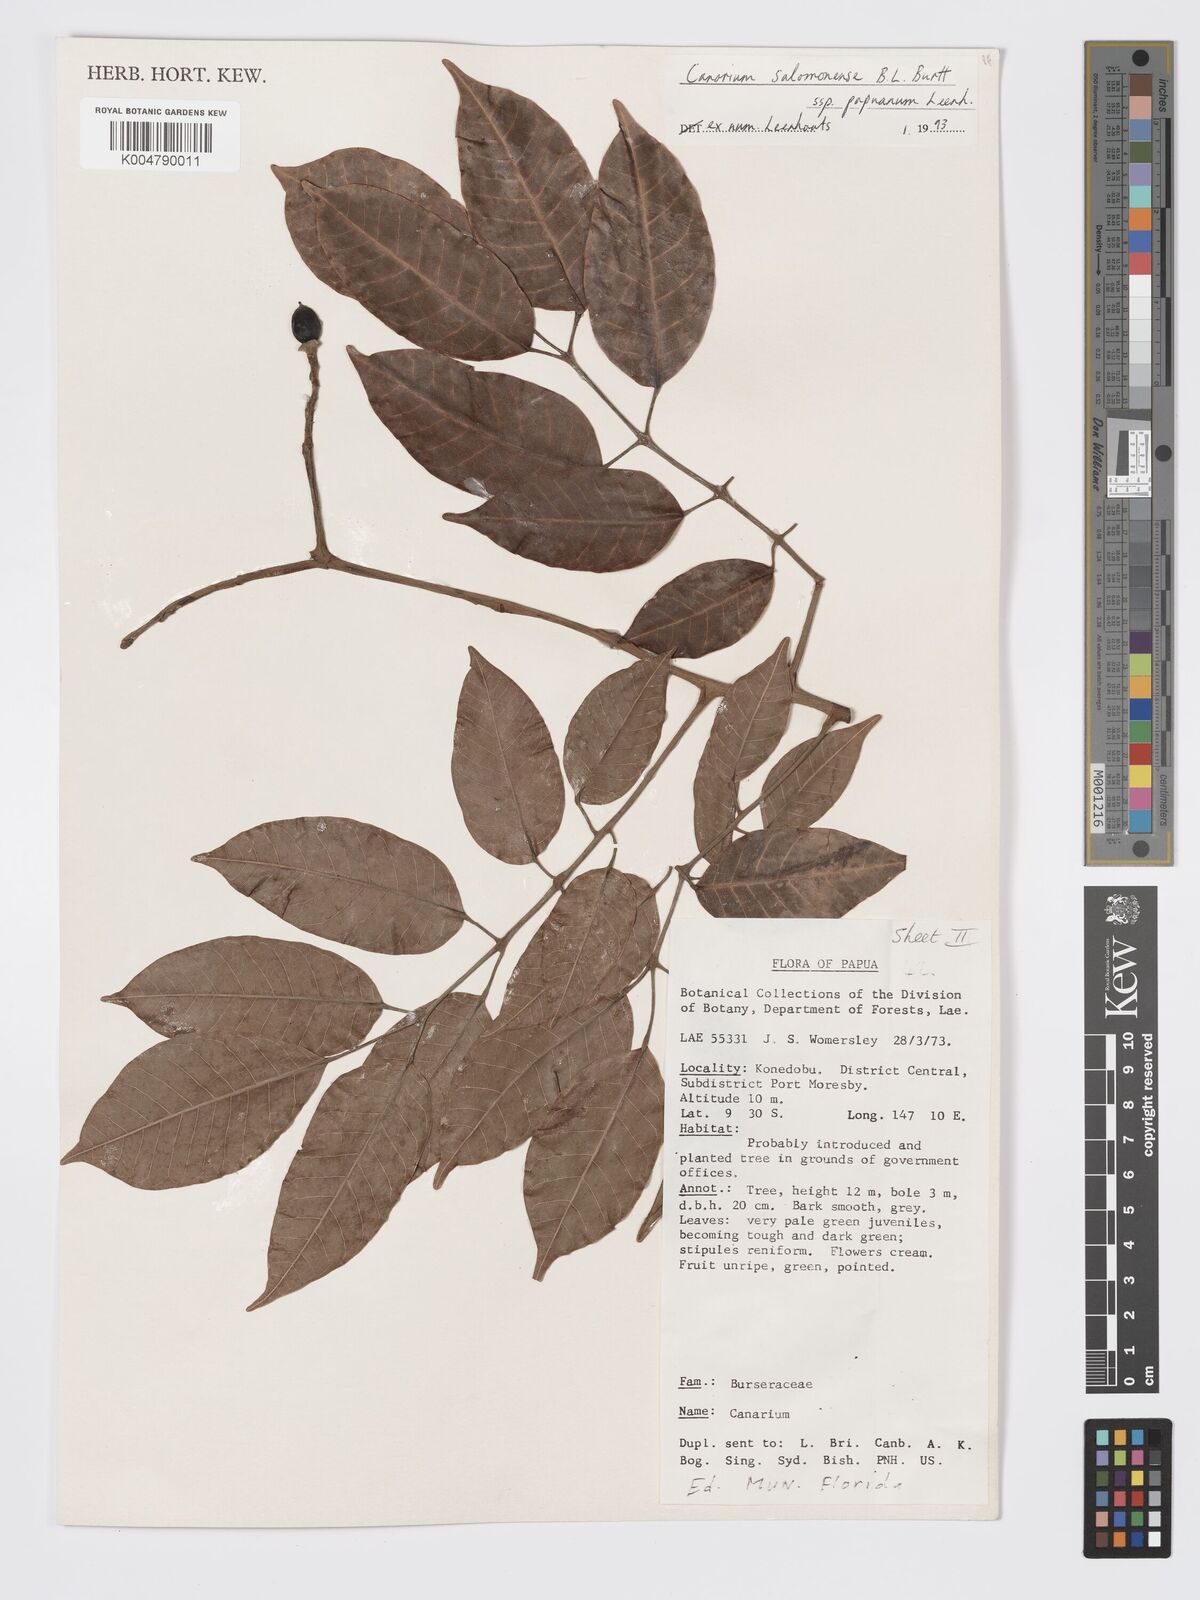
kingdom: Plantae
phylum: Tracheophyta
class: Magnoliopsida
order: Sapindales
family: Burseraceae
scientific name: Burseraceae
